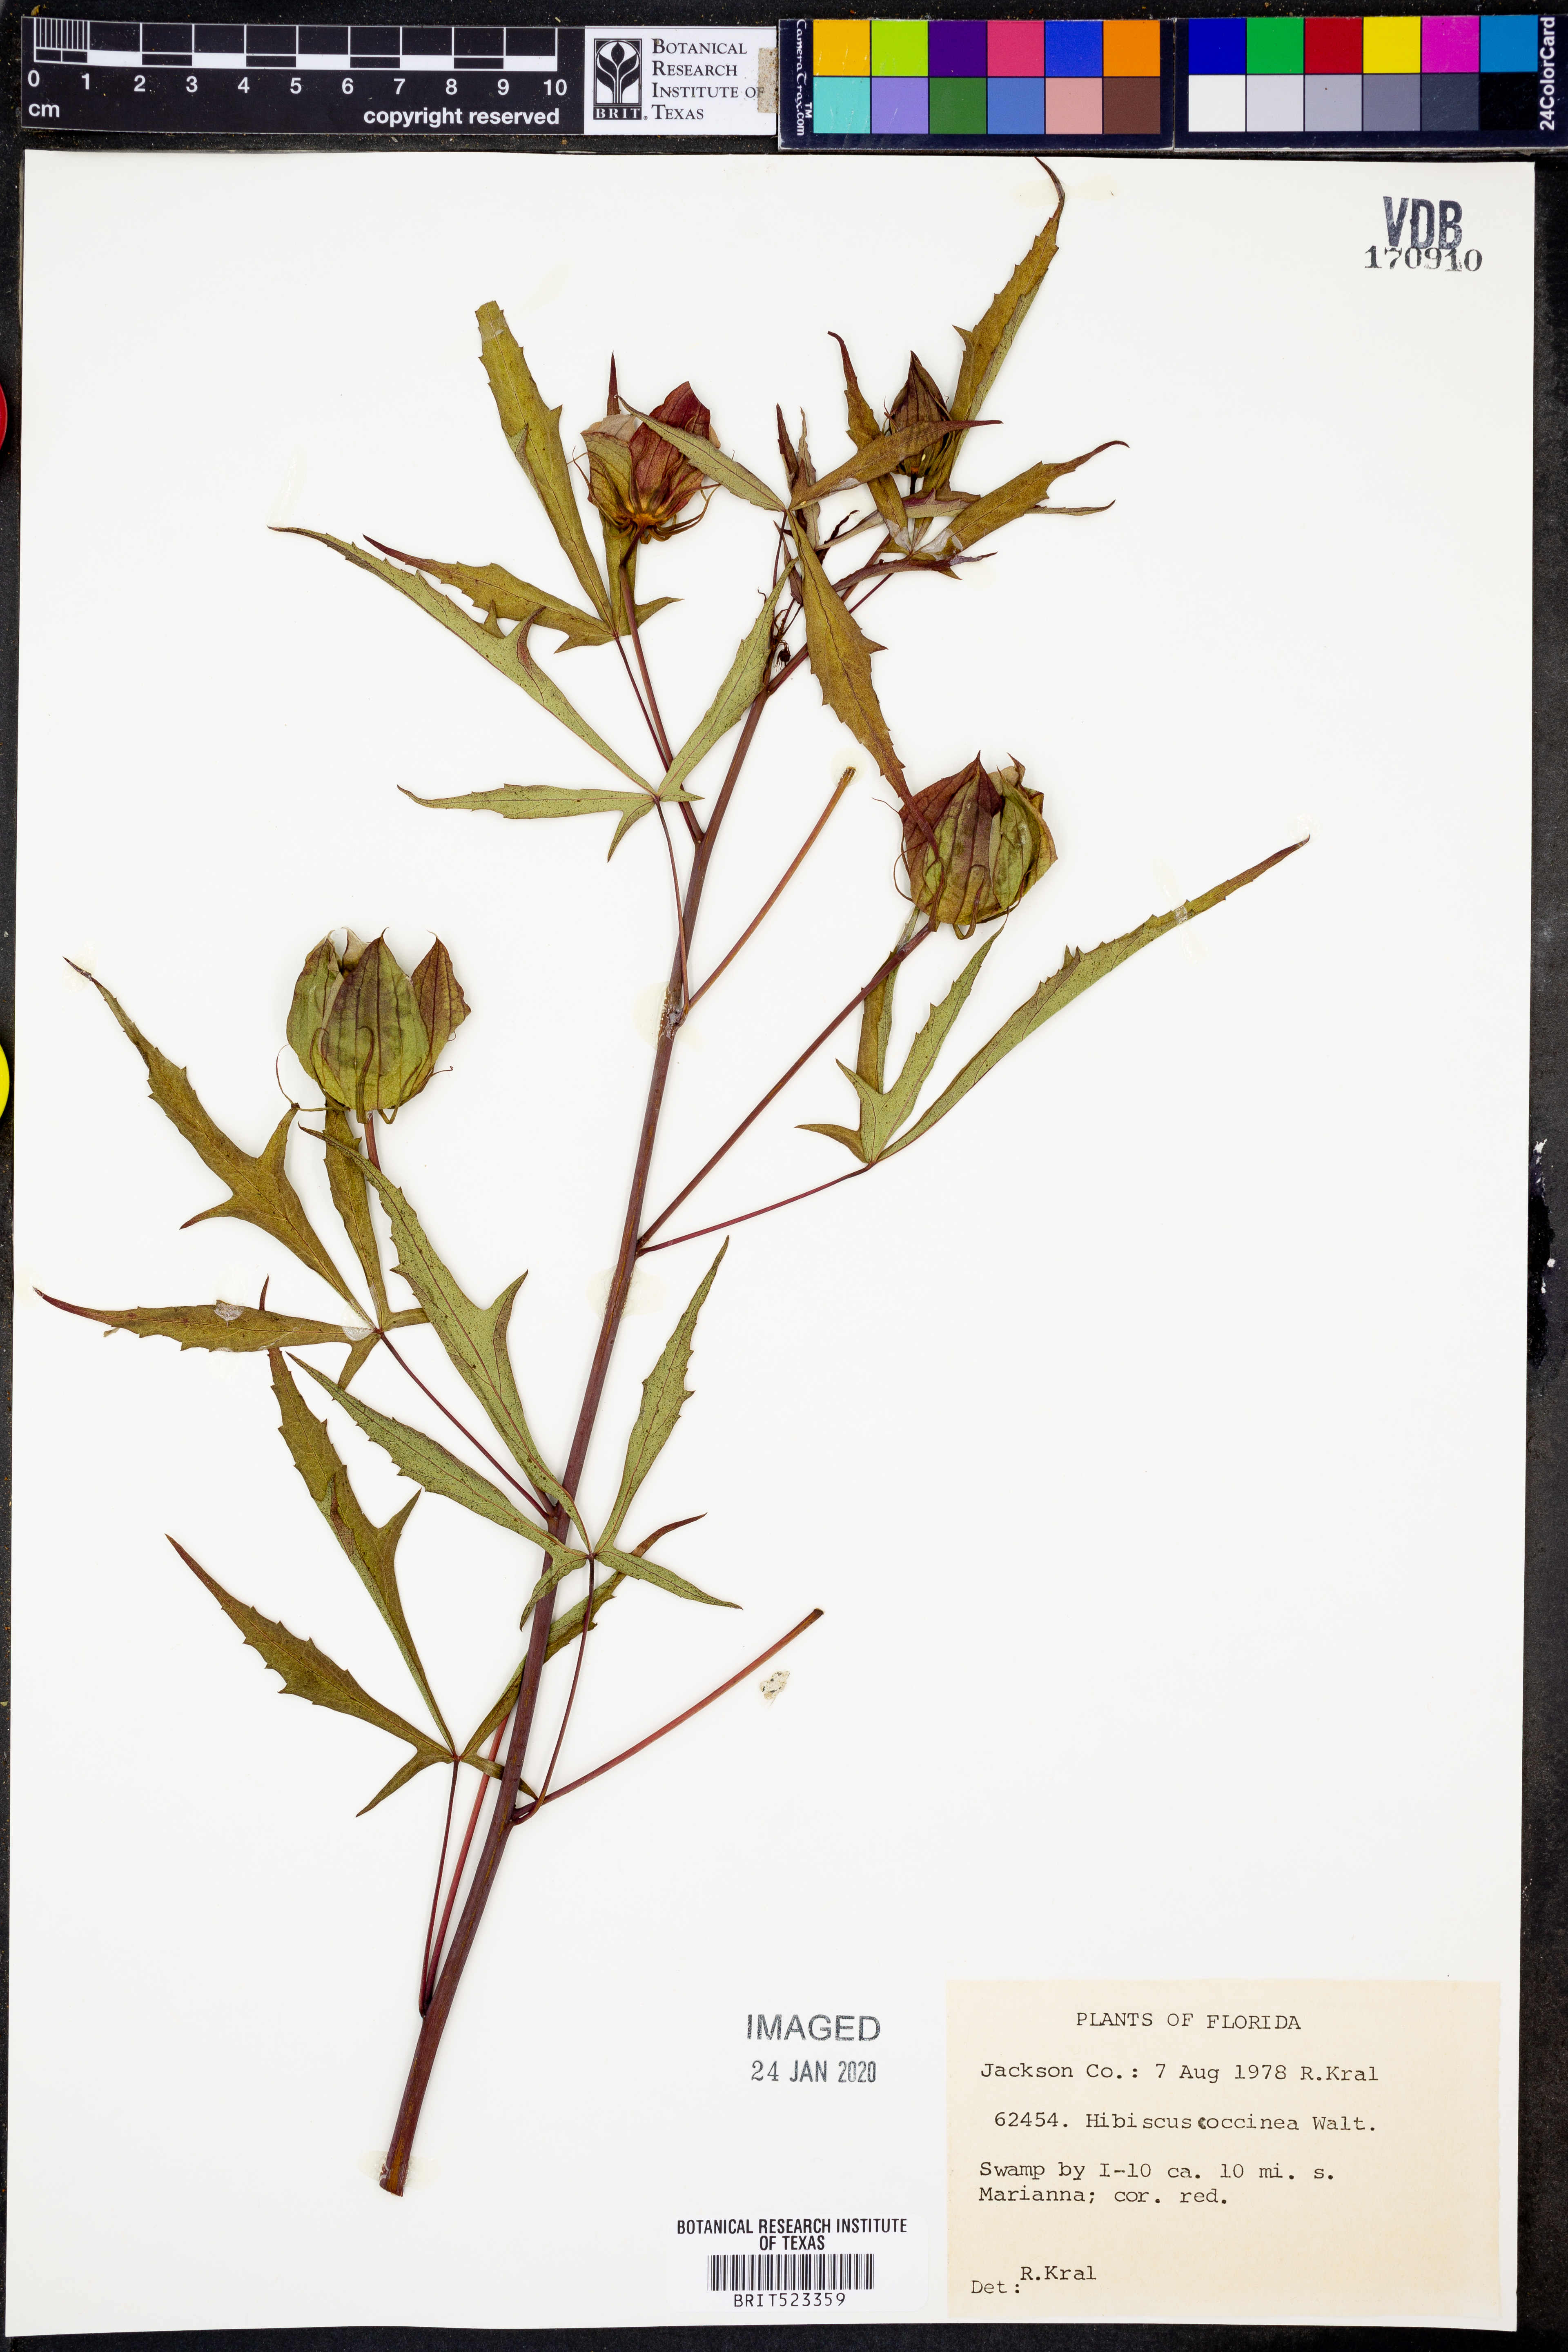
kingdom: Plantae
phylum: Tracheophyta
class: Magnoliopsida
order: Malvales
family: Malvaceae
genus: Hibiscus
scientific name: Hibiscus coccineus
